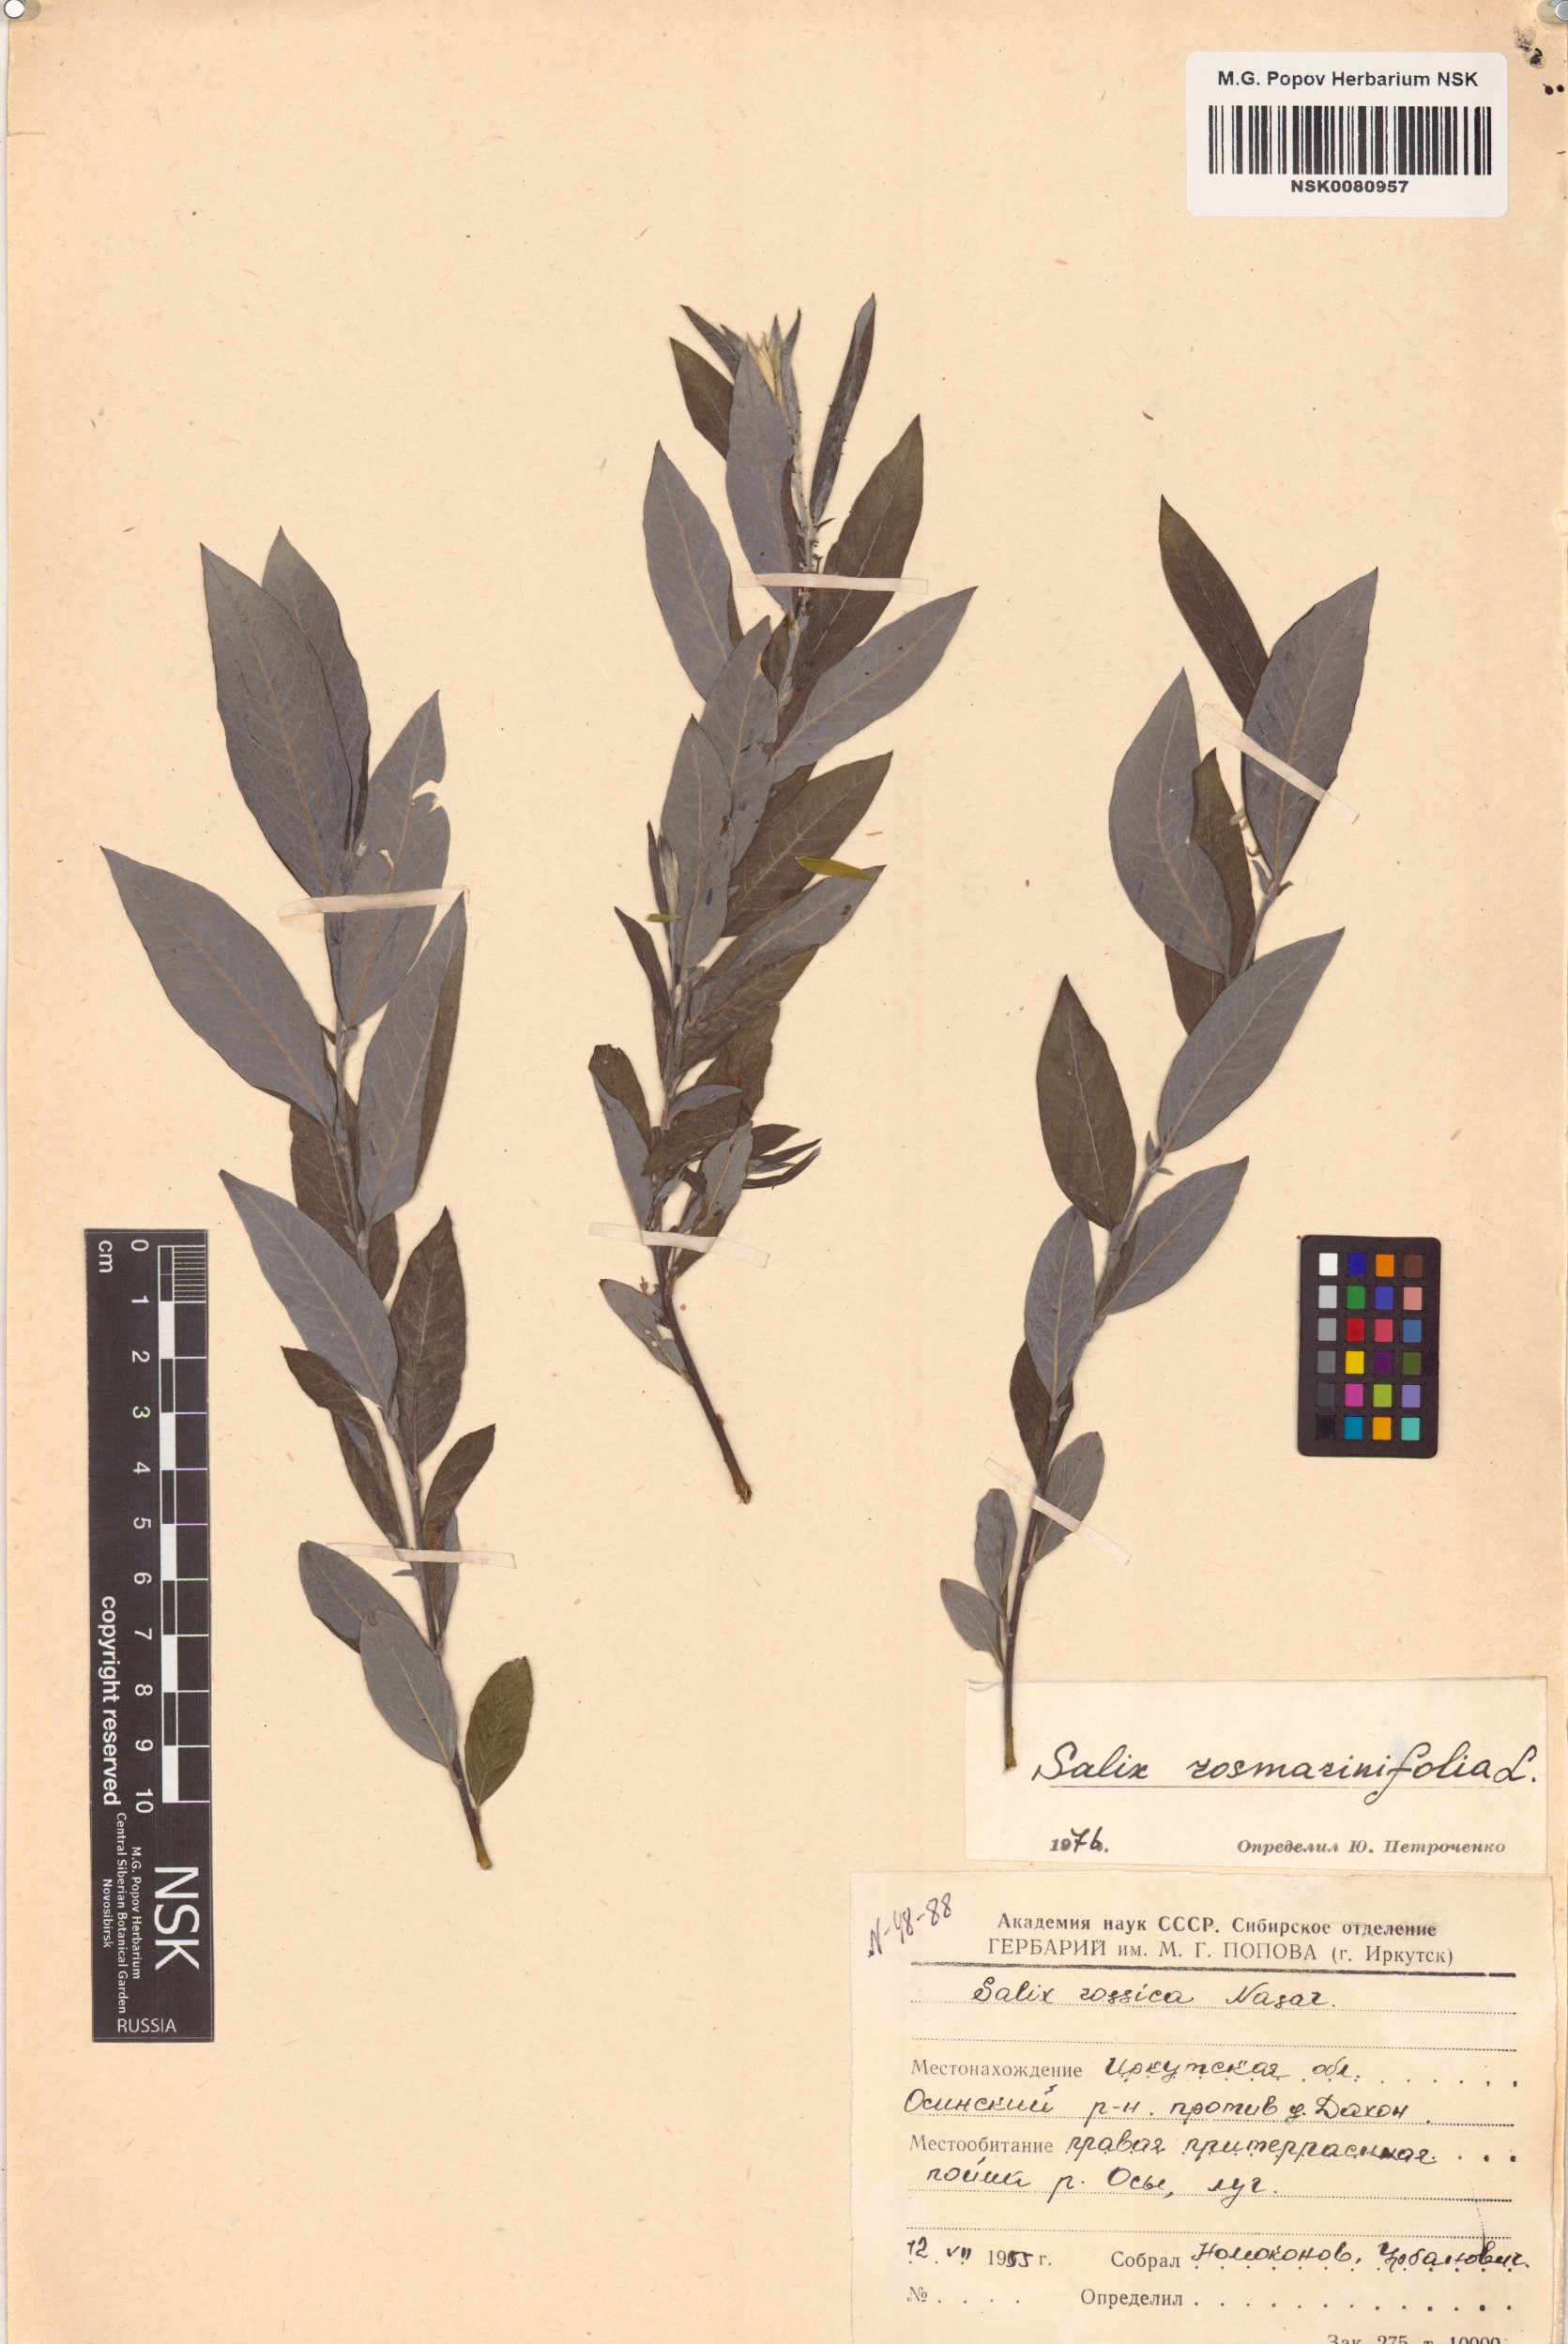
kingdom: Plantae
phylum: Tracheophyta
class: Magnoliopsida
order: Malpighiales
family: Salicaceae
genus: Salix
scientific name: Salix rosmarinifolia
